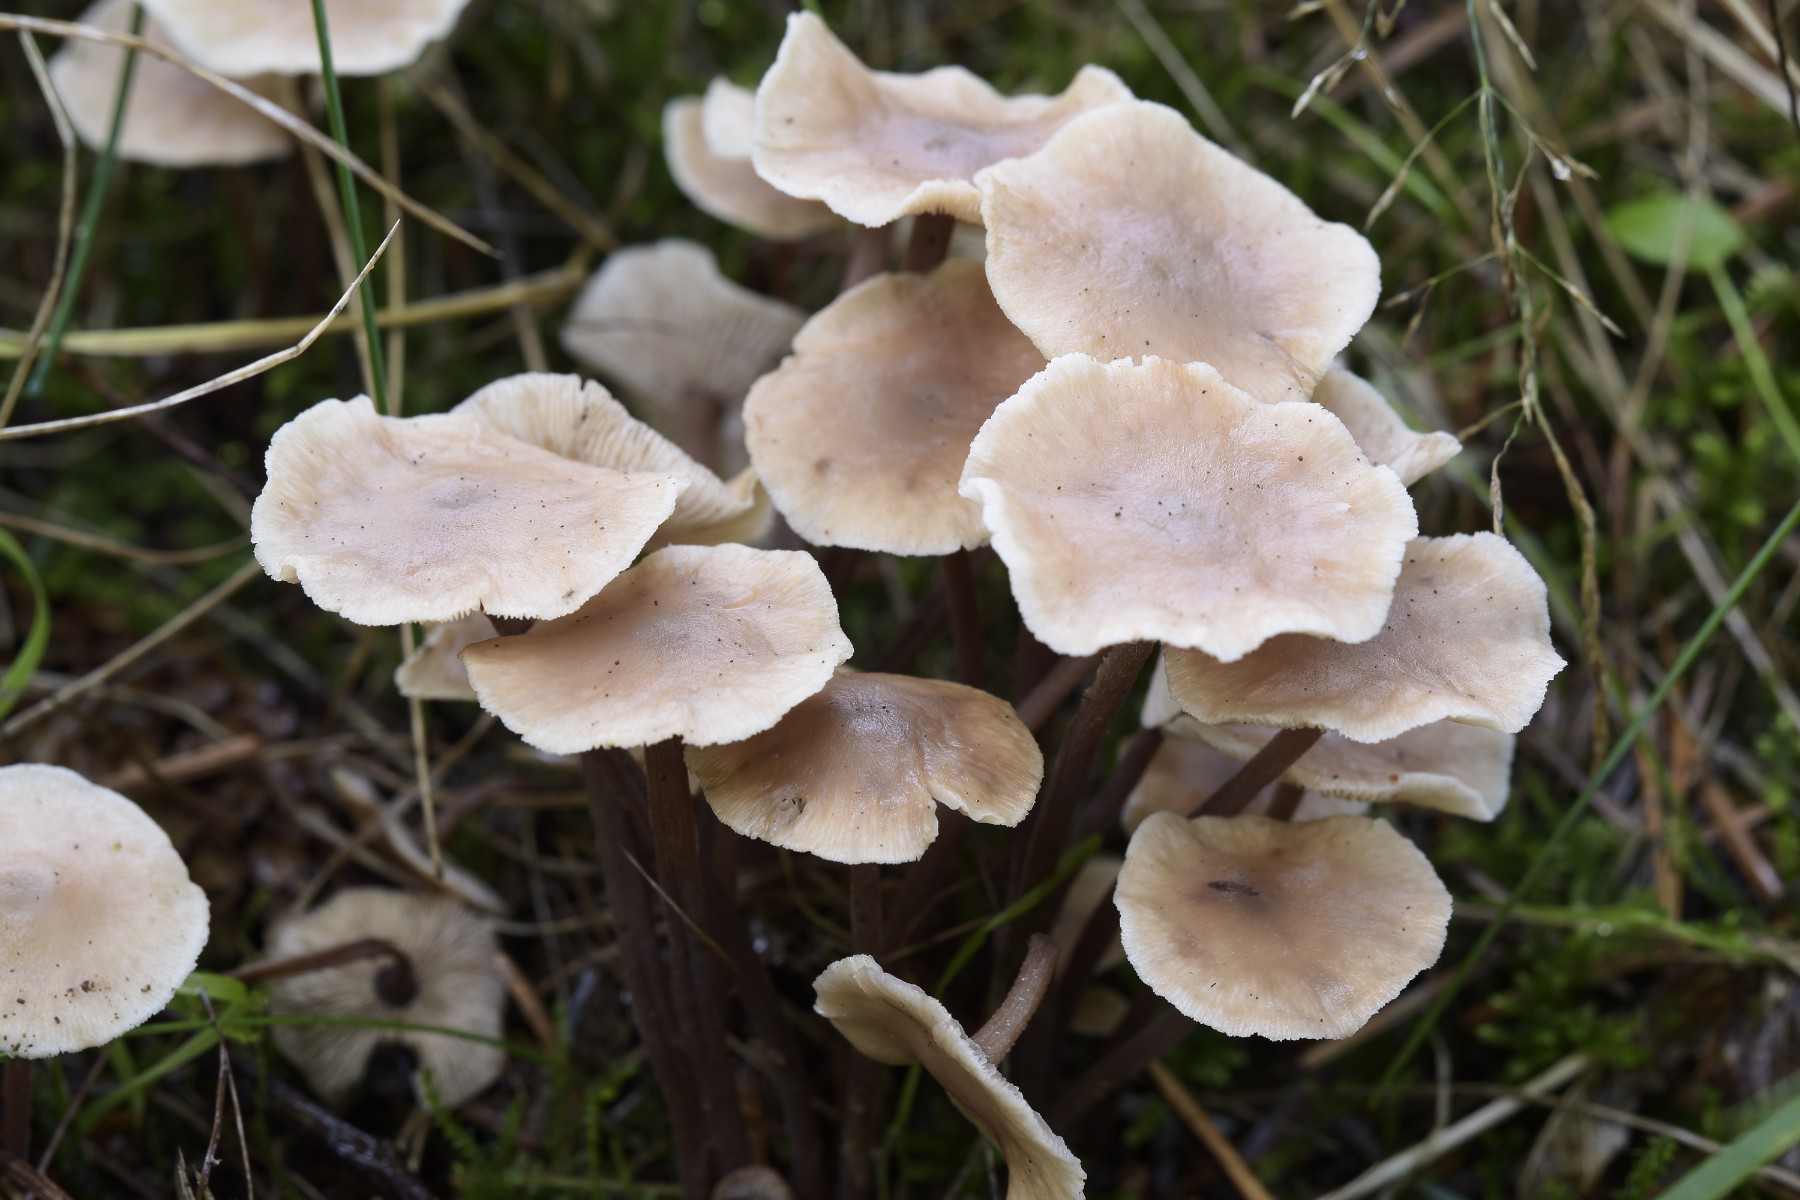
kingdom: Fungi
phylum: Basidiomycota
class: Agaricomycetes
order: Agaricales
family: Omphalotaceae
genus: Collybiopsis
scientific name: Collybiopsis confluens
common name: knippe-fladhat
